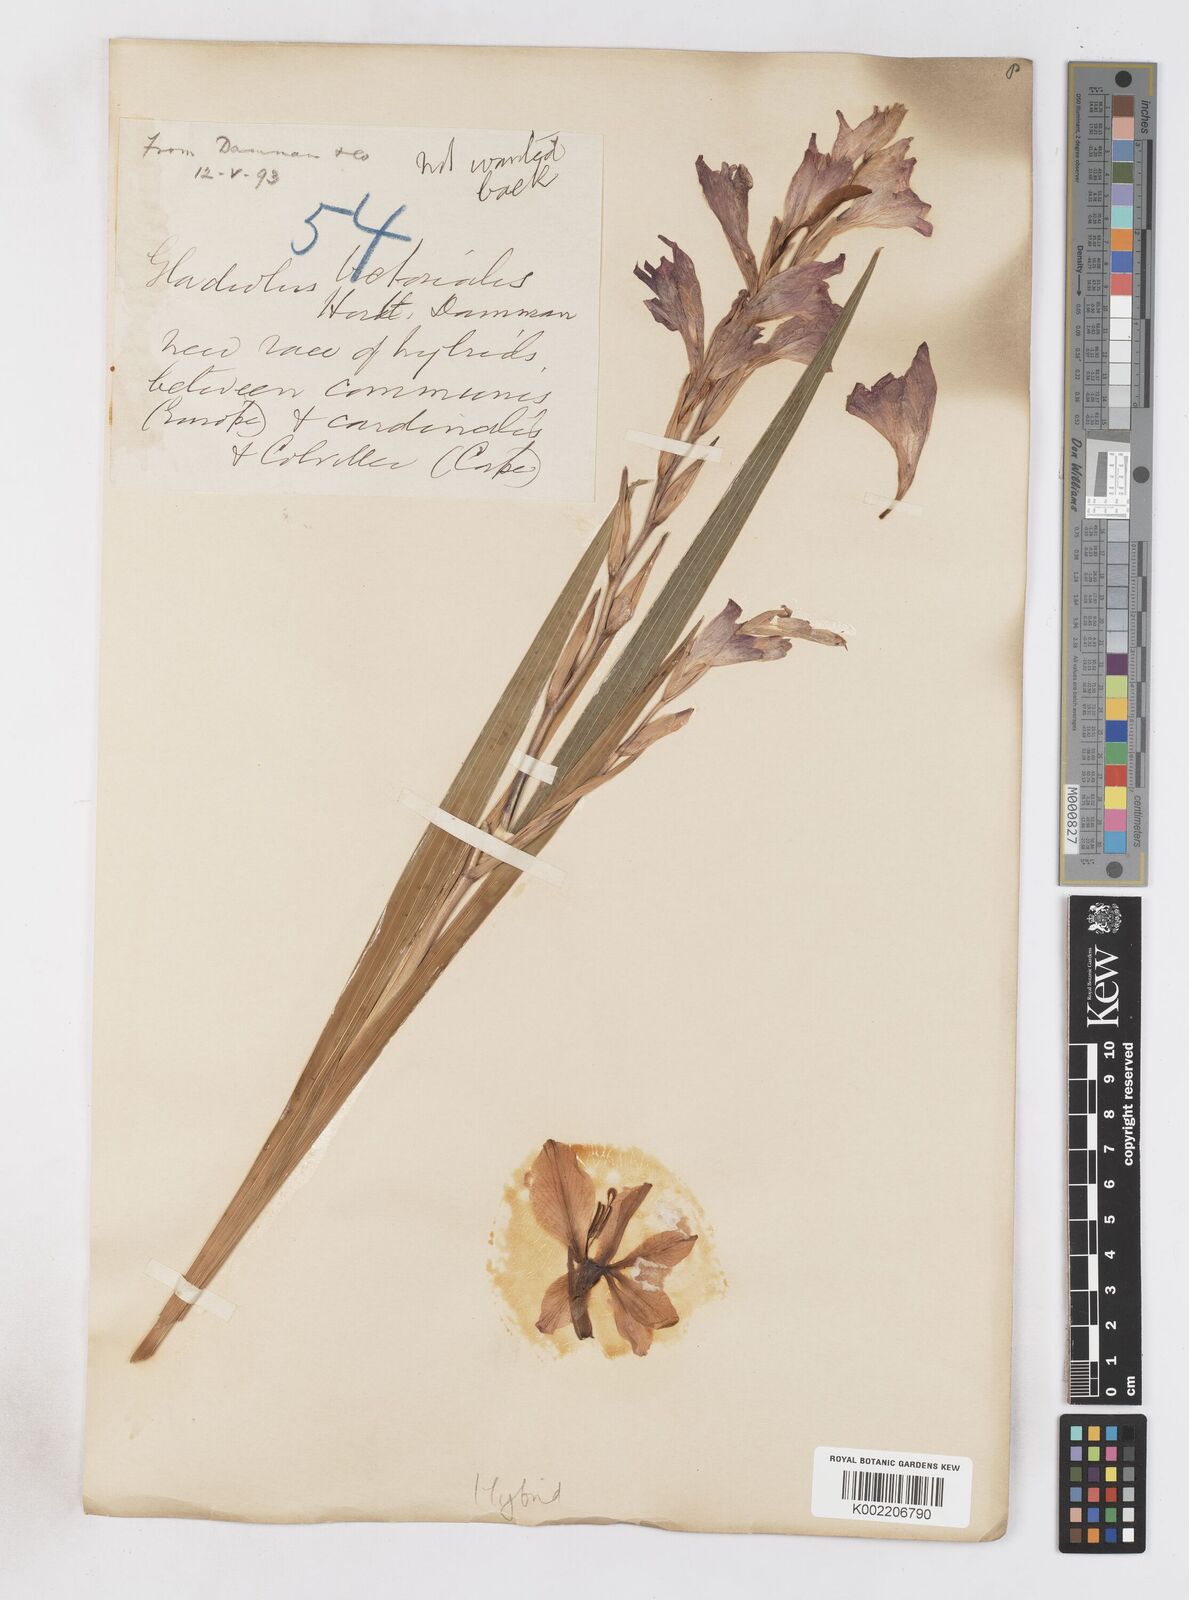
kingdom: Plantae
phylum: Tracheophyta
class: Liliopsida
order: Asparagales
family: Iridaceae
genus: Gladiolus
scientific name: Gladiolus victorialis
